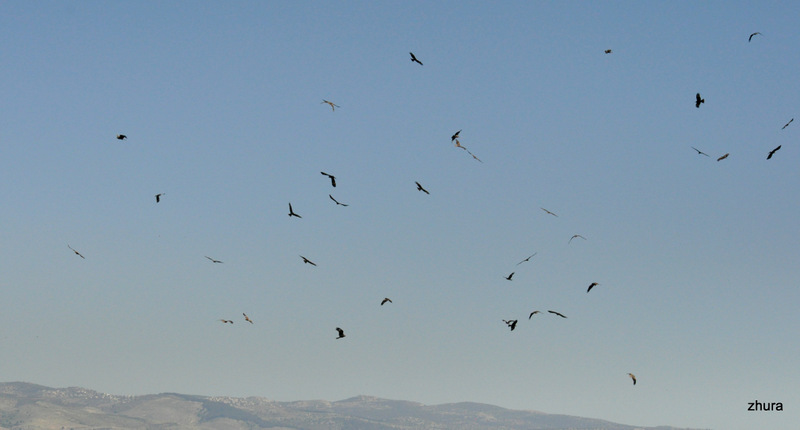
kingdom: Animalia
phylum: Chordata
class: Aves
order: Accipitriformes
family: Accipitridae
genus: Milvus
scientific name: Milvus migrans
